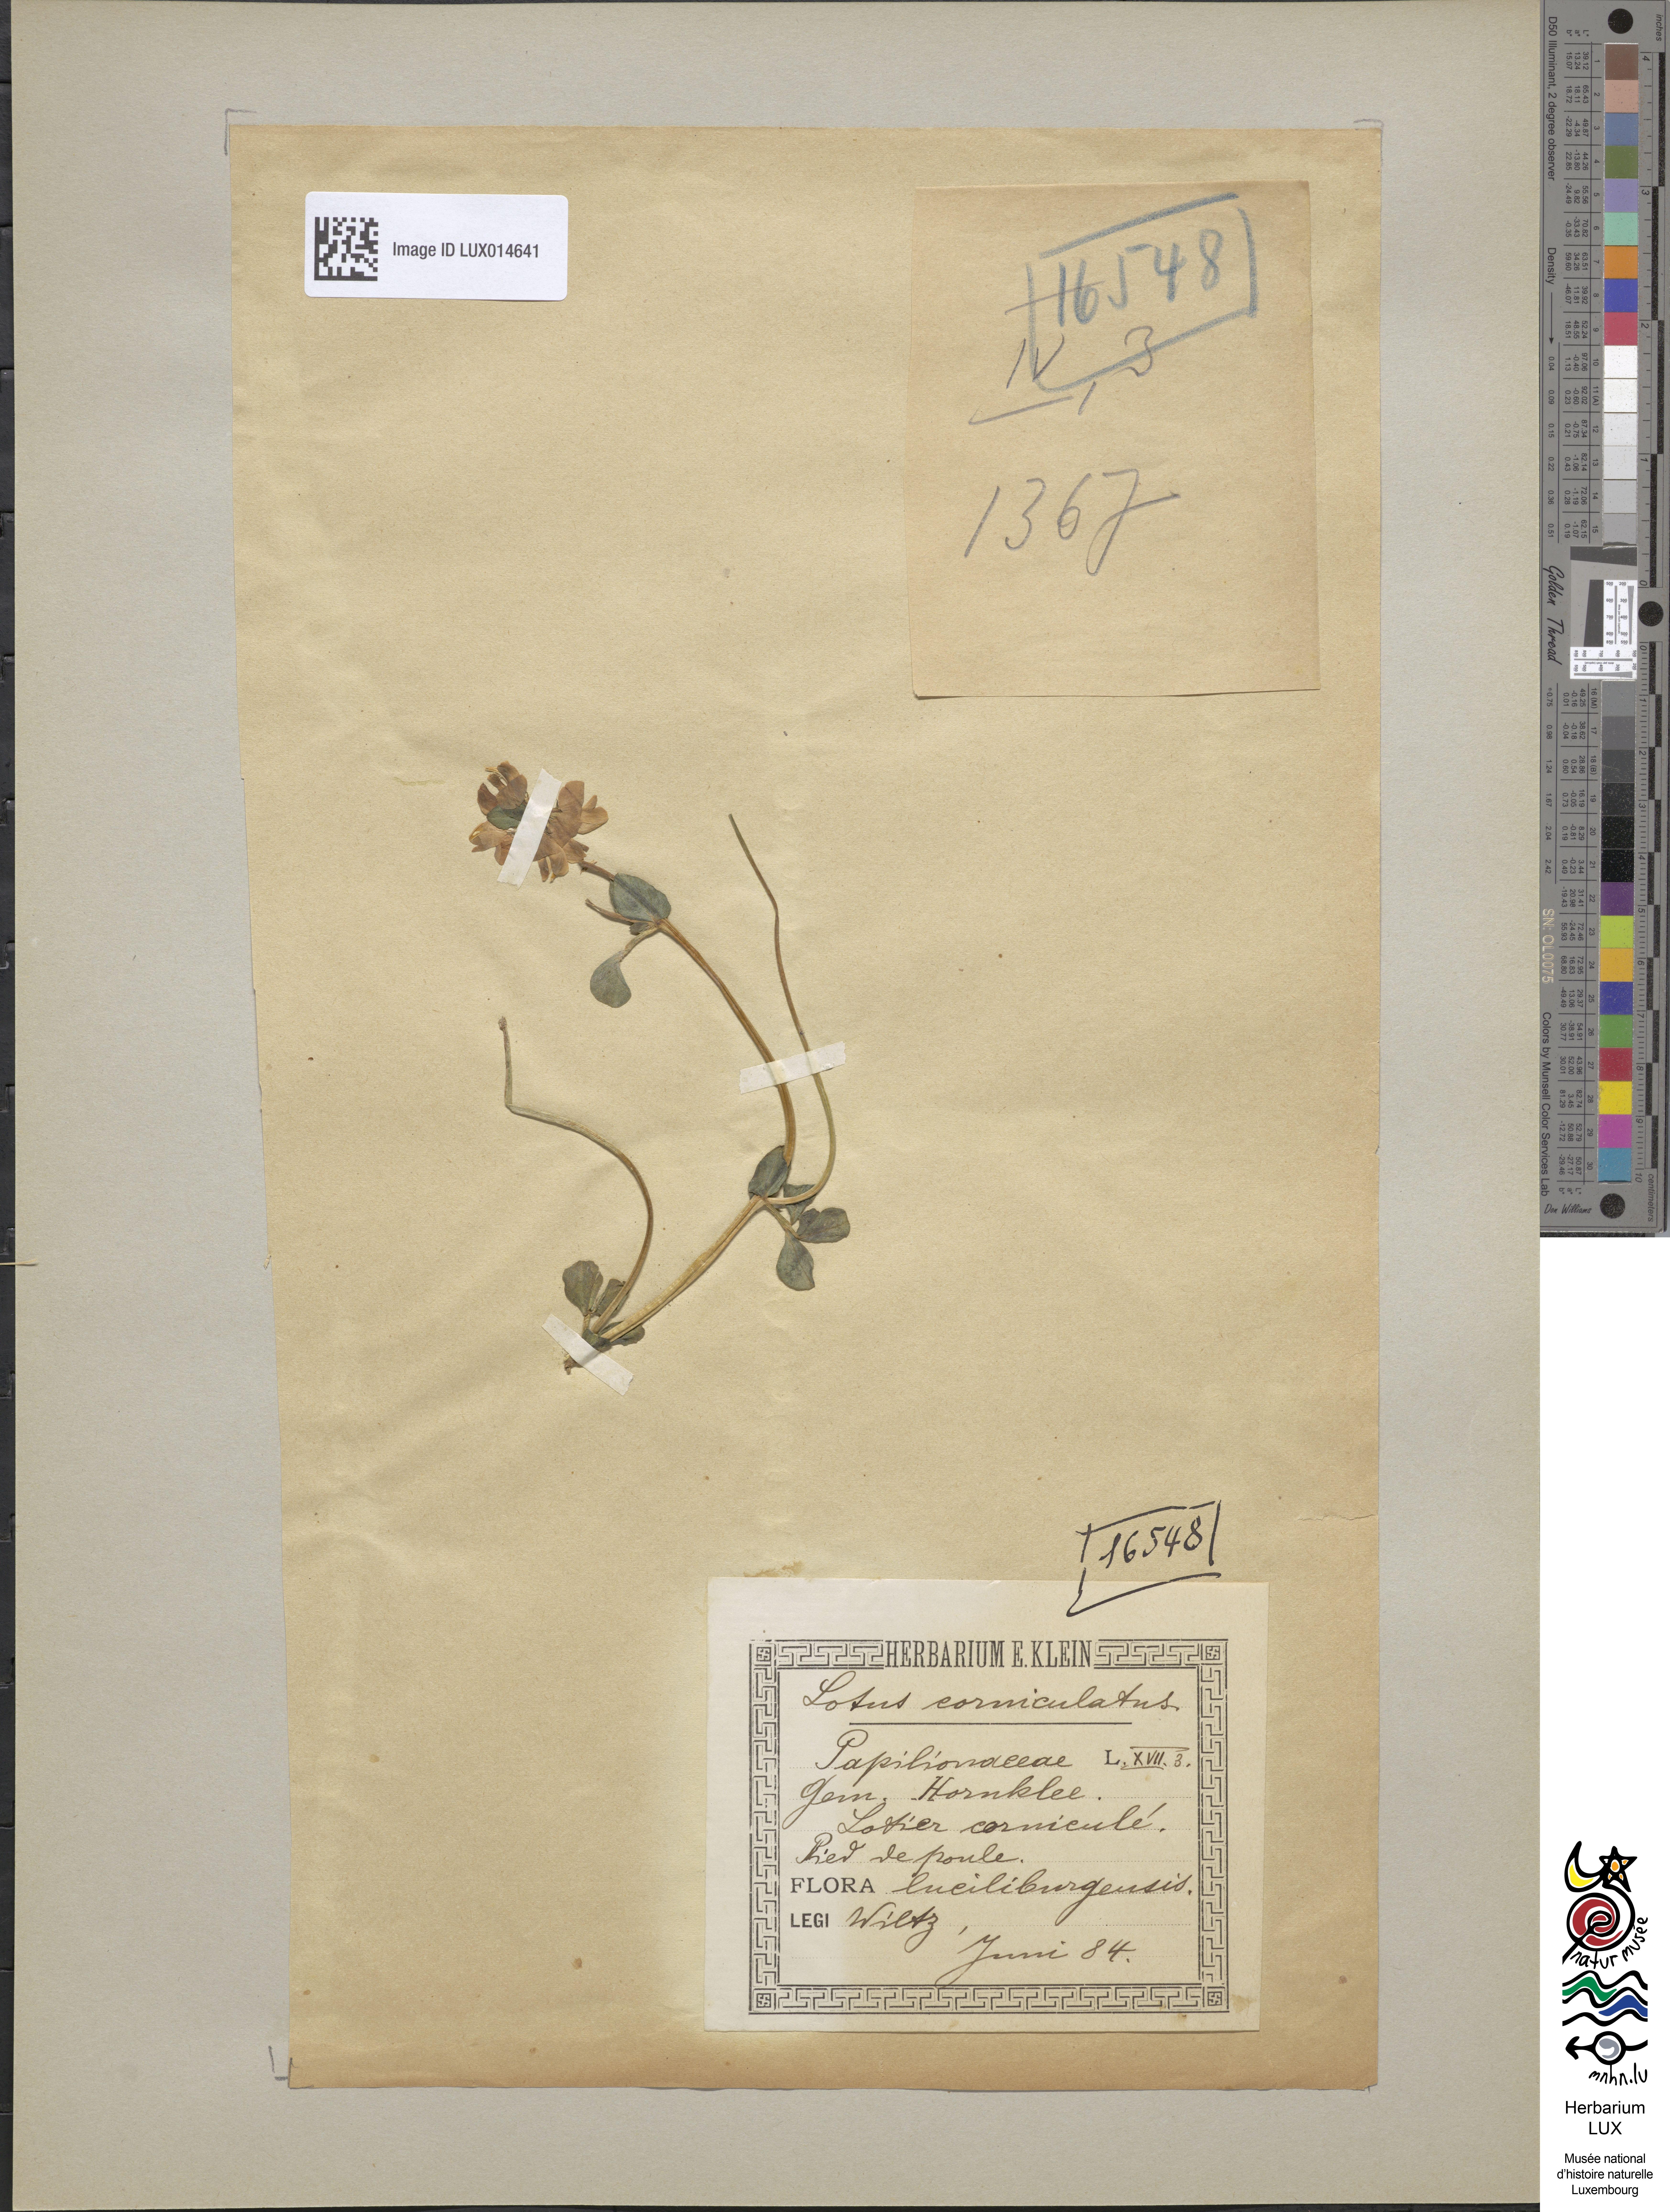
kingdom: Plantae
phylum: Tracheophyta
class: Magnoliopsida
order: Fabales
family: Fabaceae
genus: Lotus
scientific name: Lotus corniculatus
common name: Common bird's-foot-trefoil
